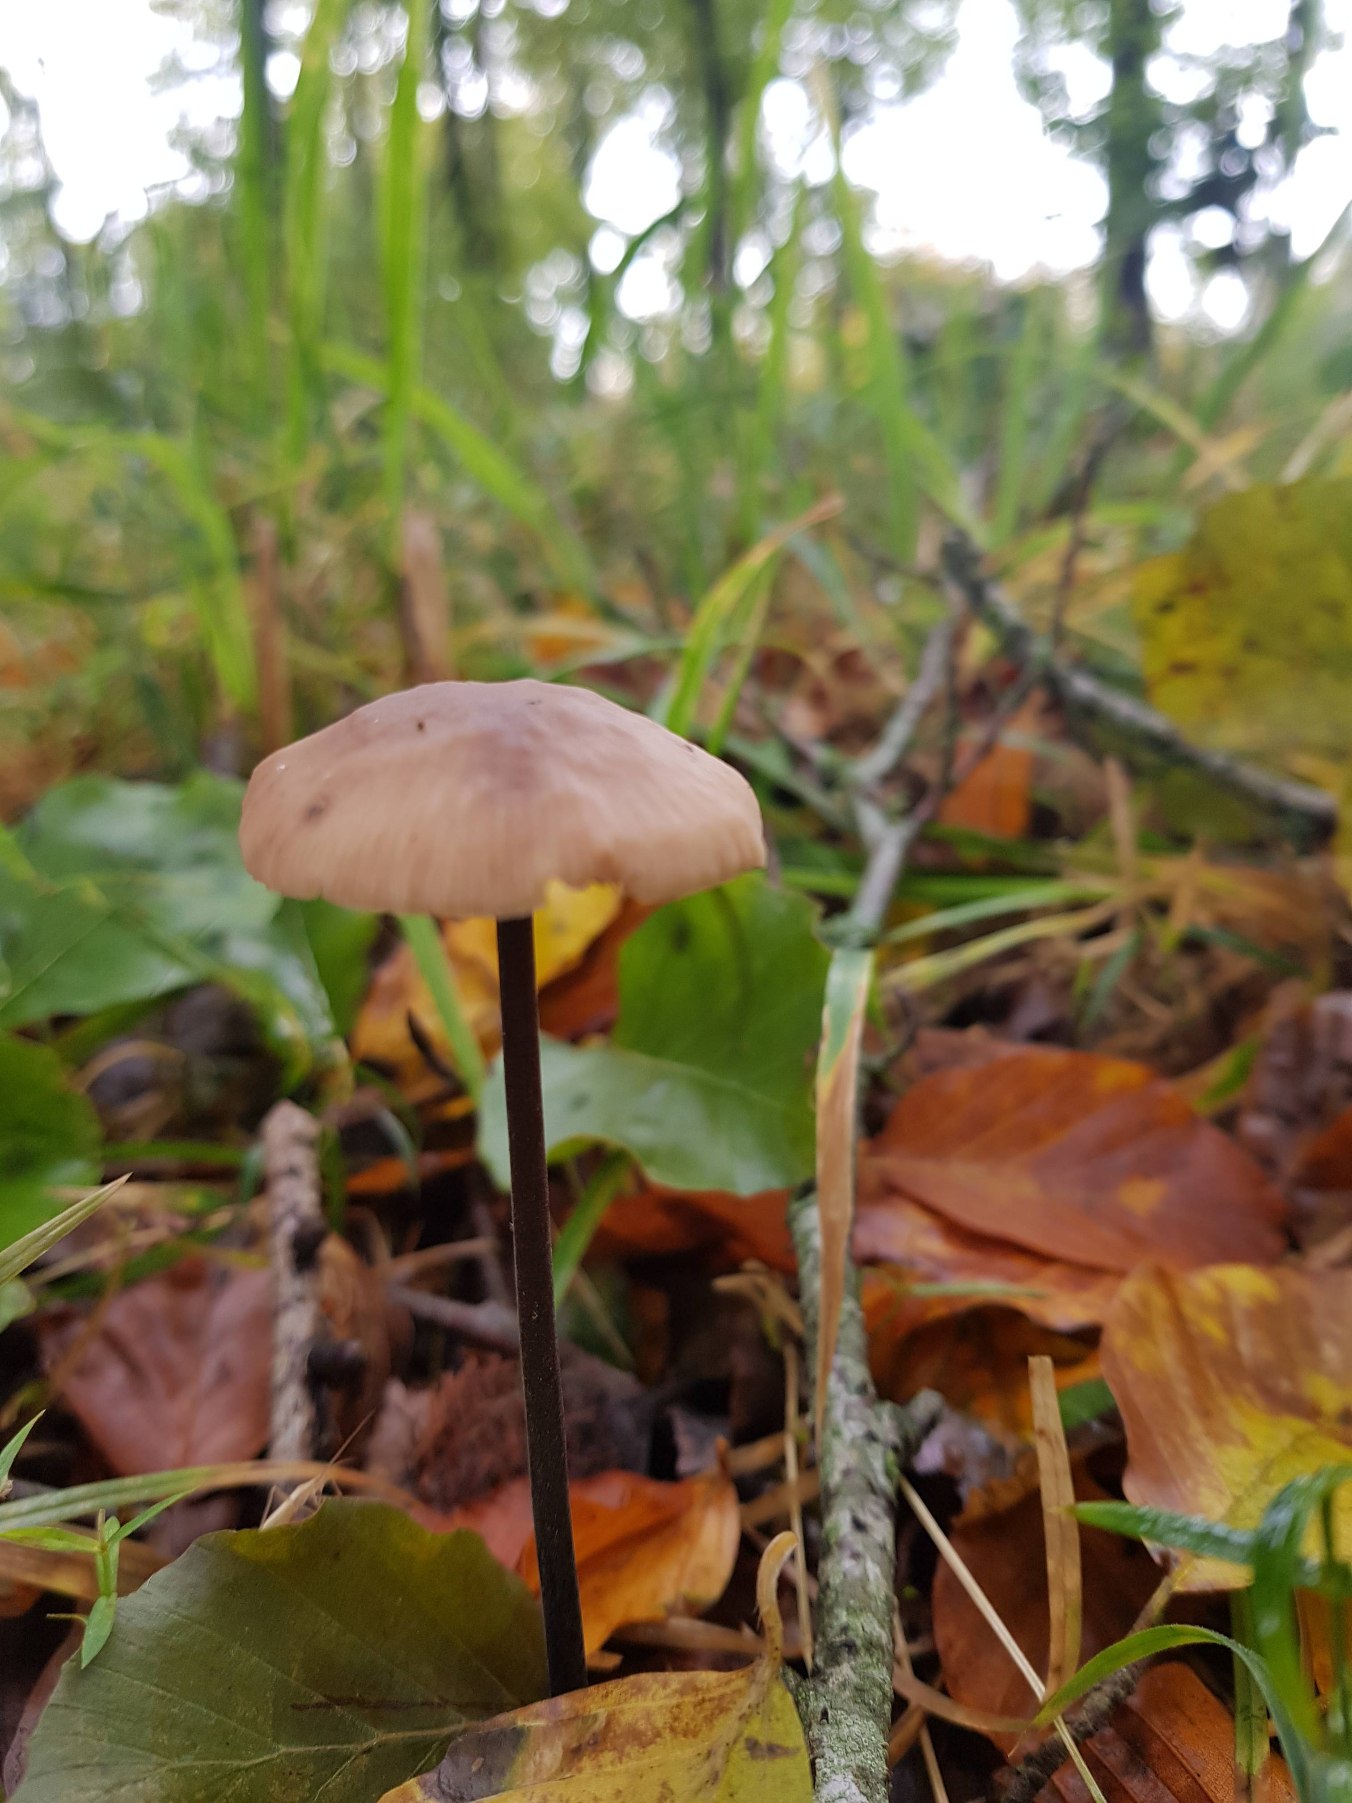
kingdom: Fungi
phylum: Basidiomycota
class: Agaricomycetes
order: Agaricales
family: Omphalotaceae
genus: Mycetinis
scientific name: Mycetinis alliaceus
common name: Stor løghat
